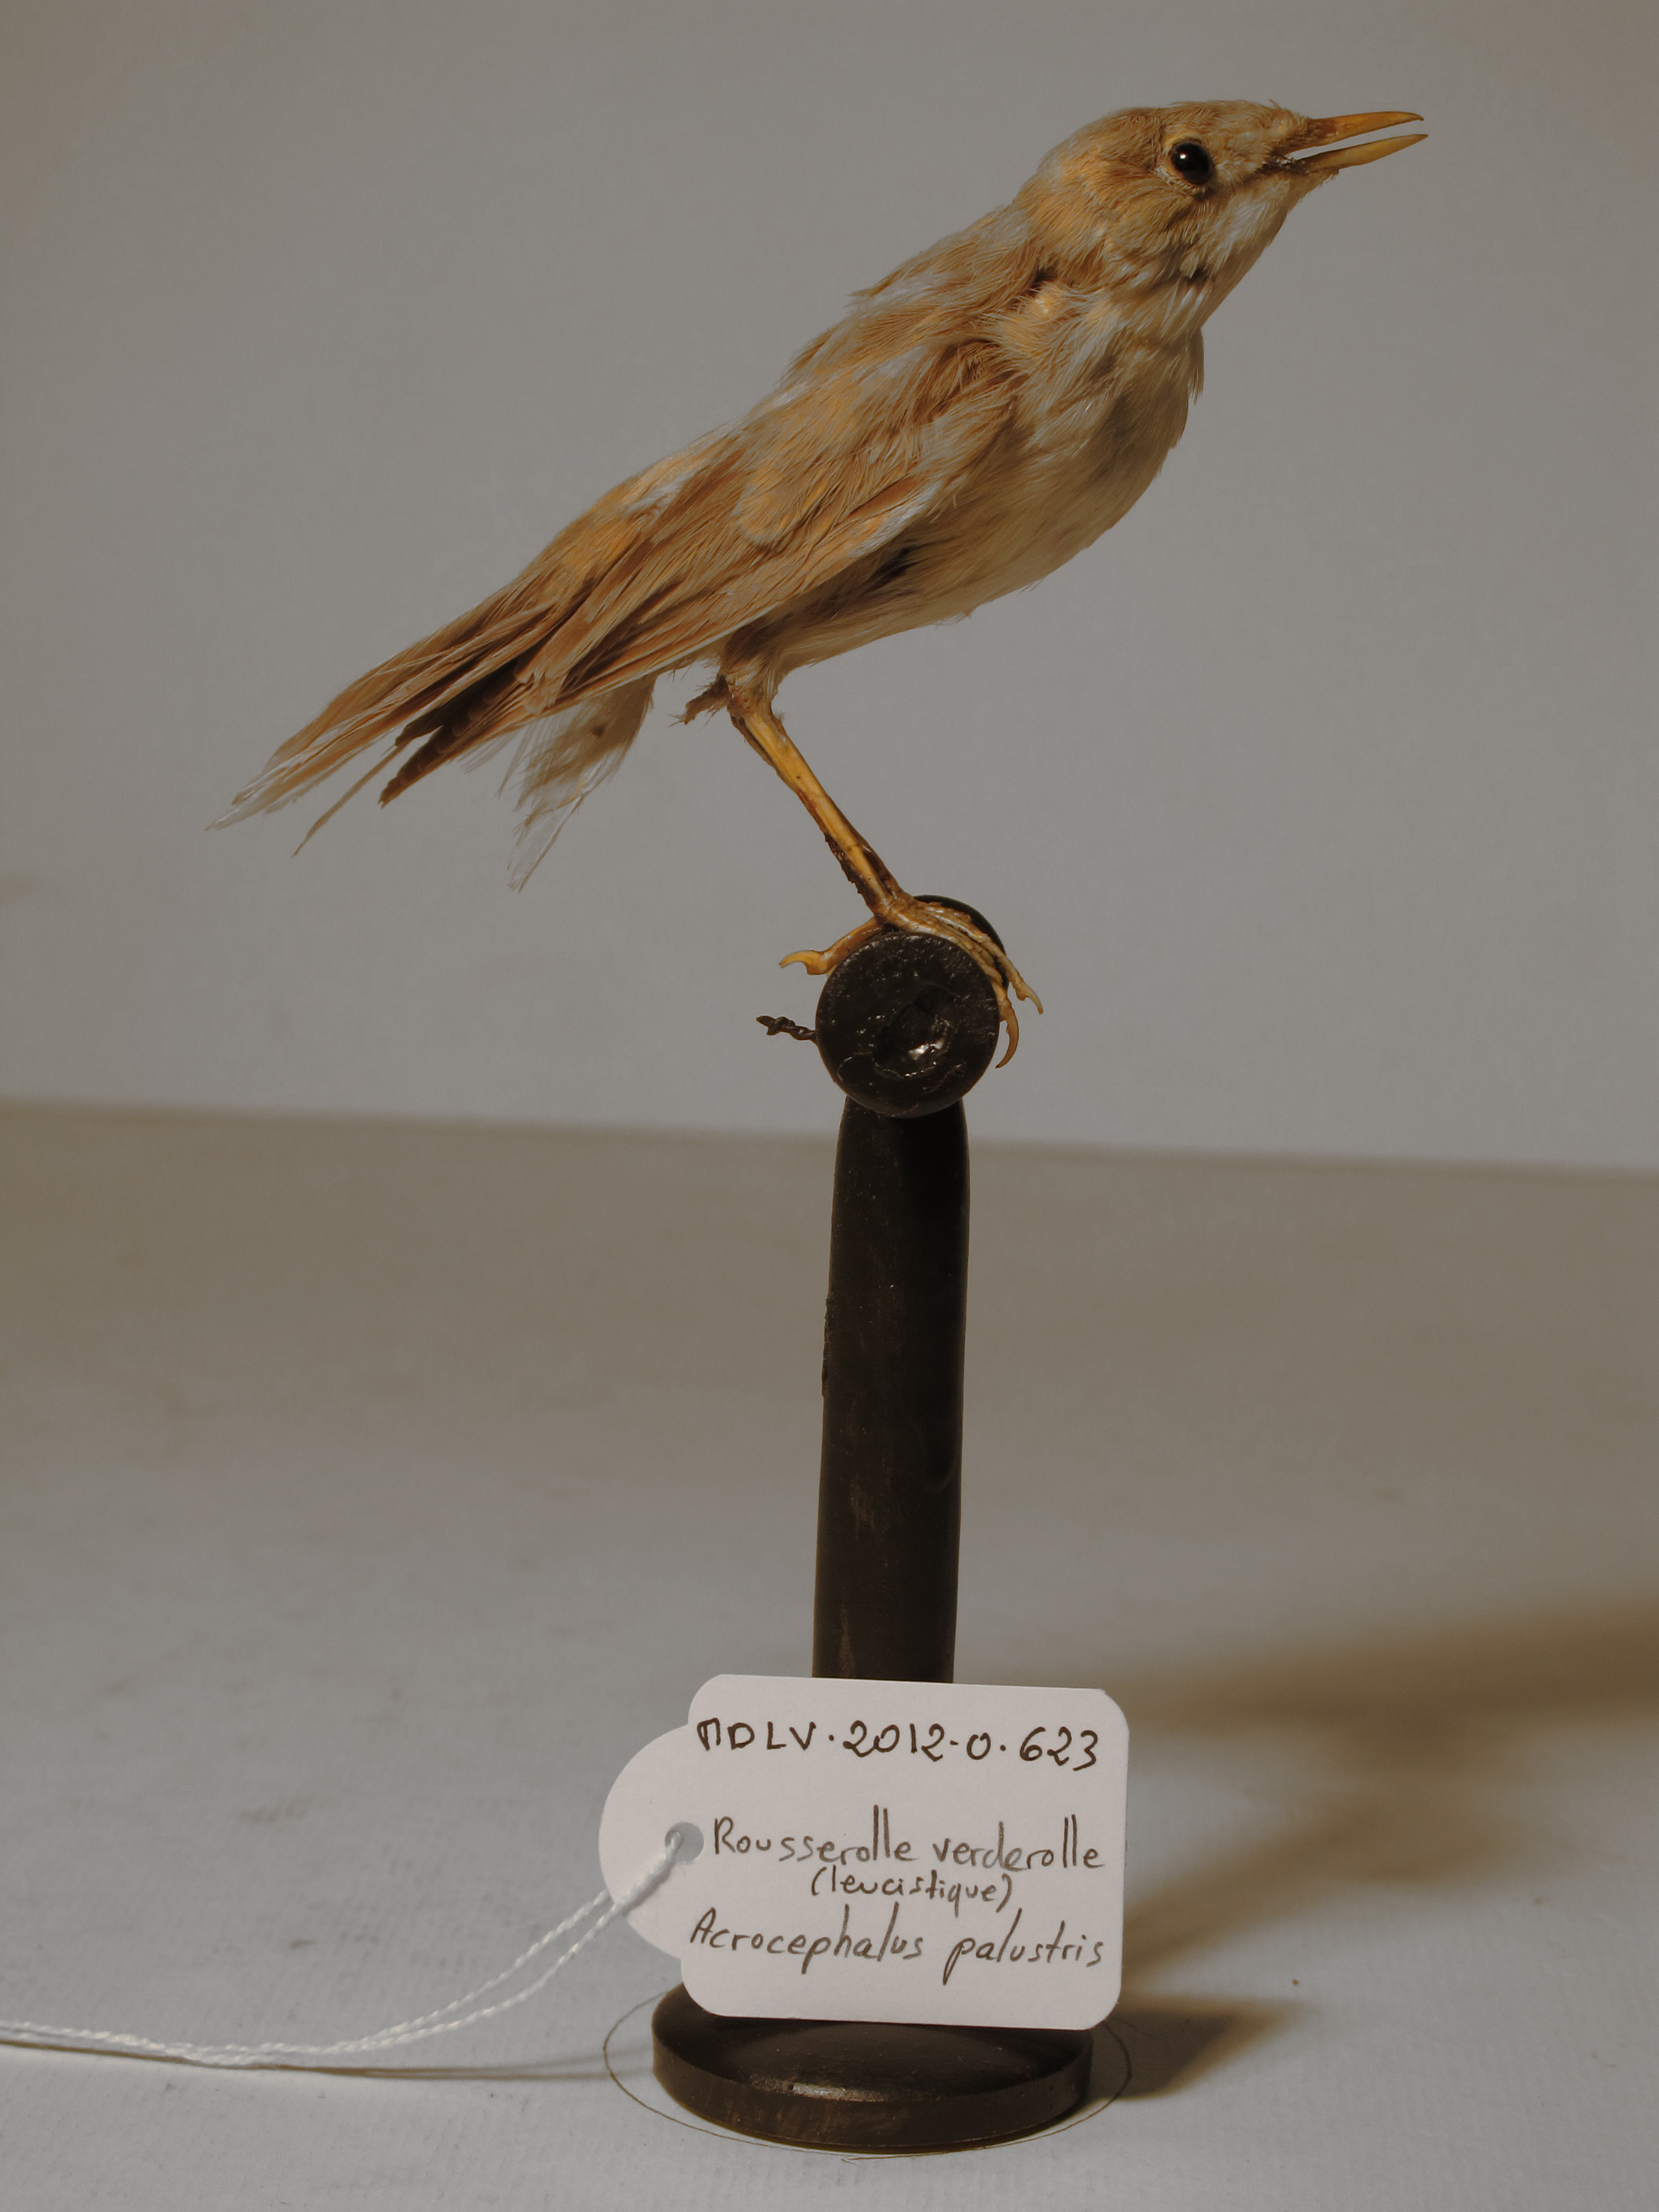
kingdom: Animalia
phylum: Chordata
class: Aves
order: Passeriformes
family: Acrocephalidae
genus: Acrocephalus
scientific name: Acrocephalus palustris
